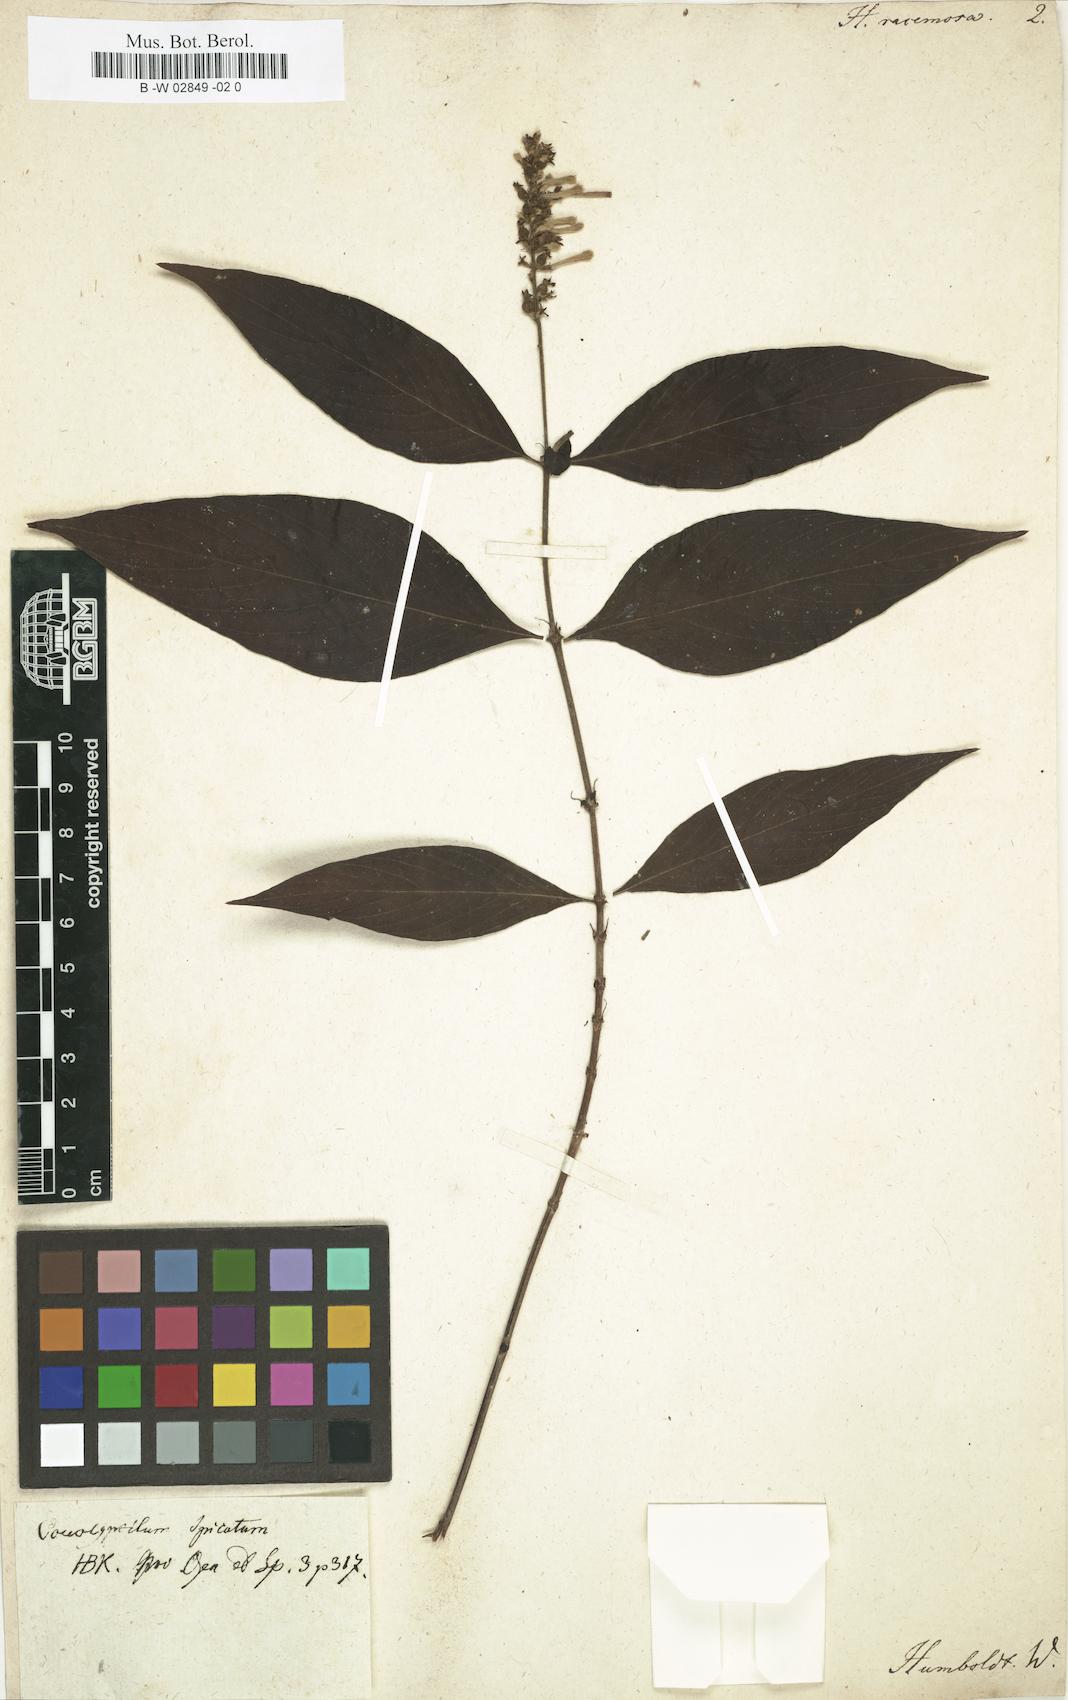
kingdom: Plantae
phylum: Tracheophyta
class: Magnoliopsida
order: Gentianales
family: Rubiaceae
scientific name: Rubiaceae
